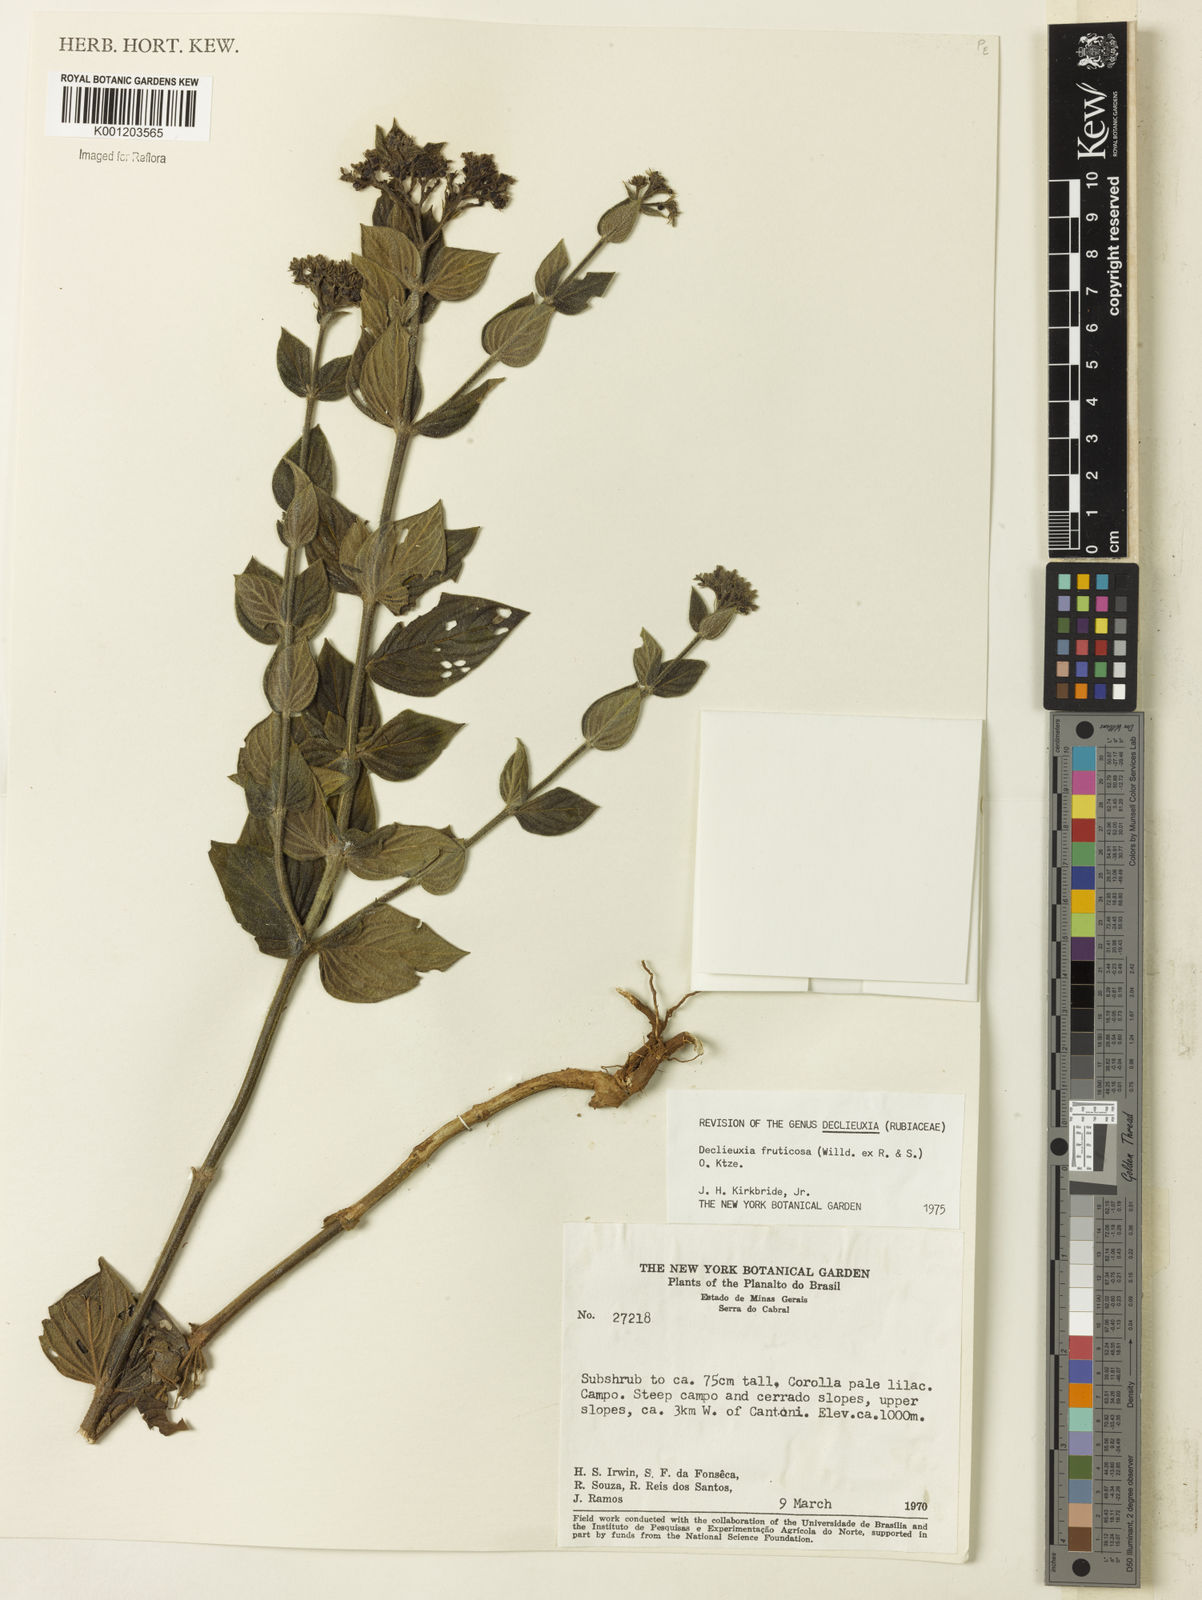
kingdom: Plantae
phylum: Tracheophyta
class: Magnoliopsida
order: Gentianales
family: Rubiaceae
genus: Declieuxia
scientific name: Declieuxia fruticosa
